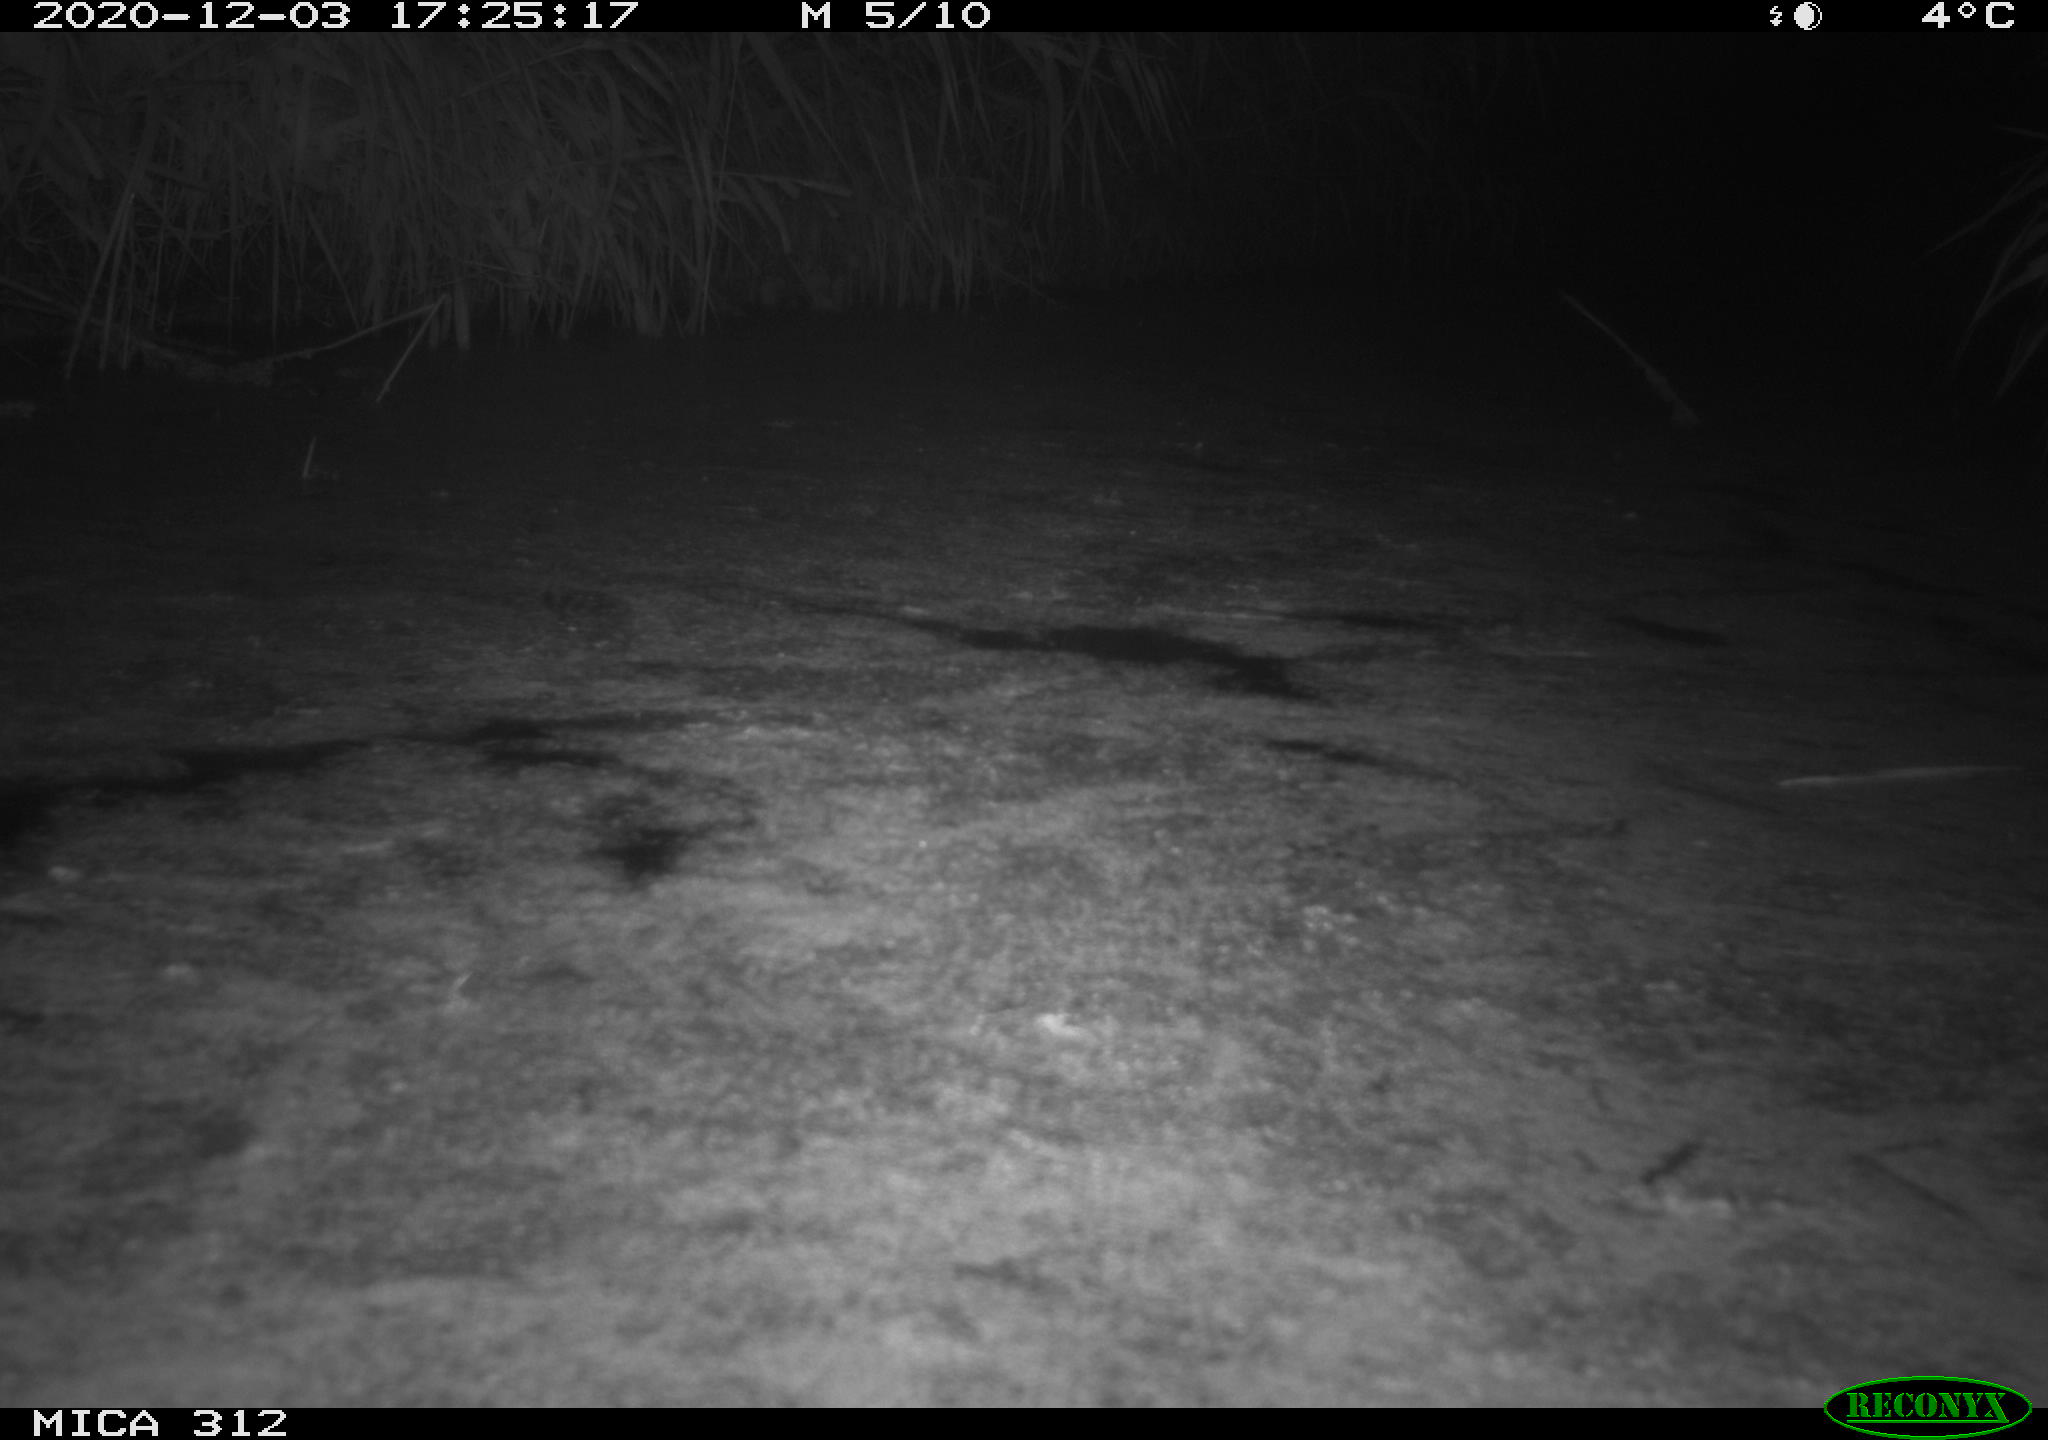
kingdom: Animalia
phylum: Chordata
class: Aves
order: Gruiformes
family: Rallidae
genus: Fulica
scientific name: Fulica atra
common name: Eurasian coot
